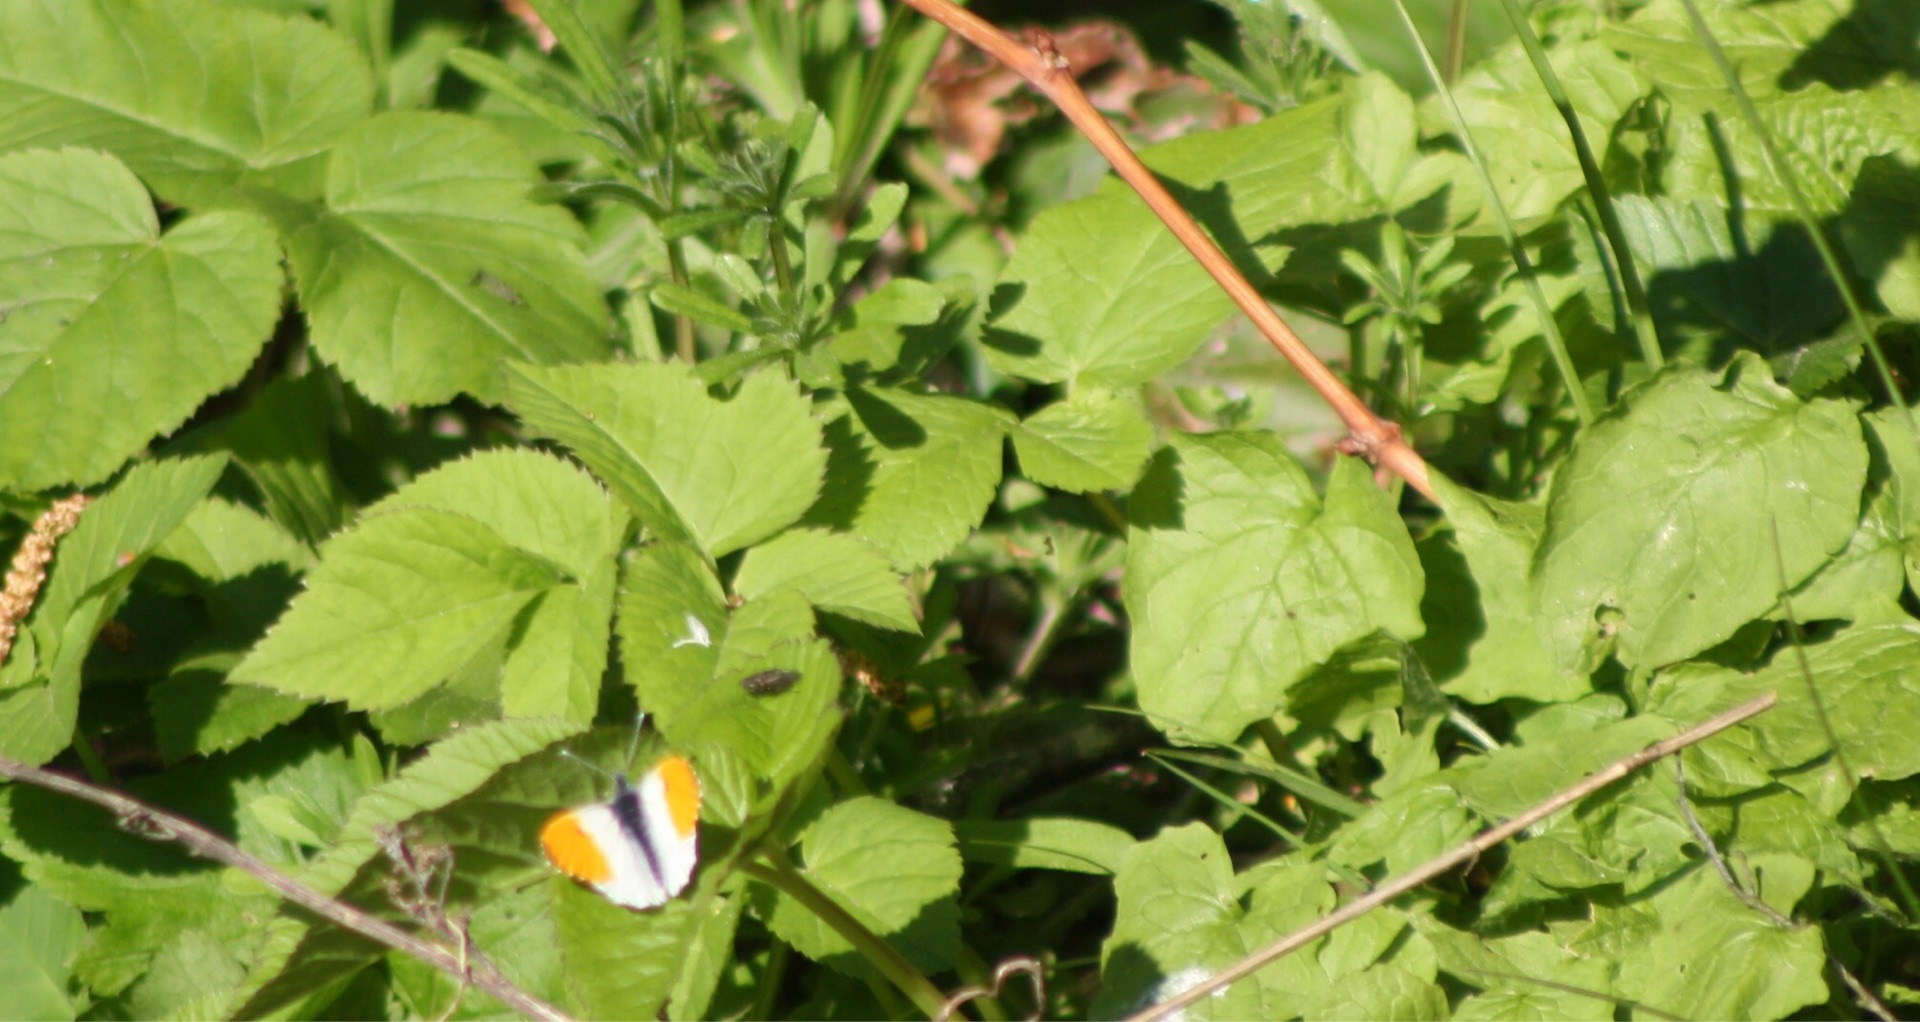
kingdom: Animalia
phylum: Arthropoda
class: Insecta
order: Lepidoptera
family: Pieridae
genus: Anthocharis
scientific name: Anthocharis cardamines
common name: Aurora
